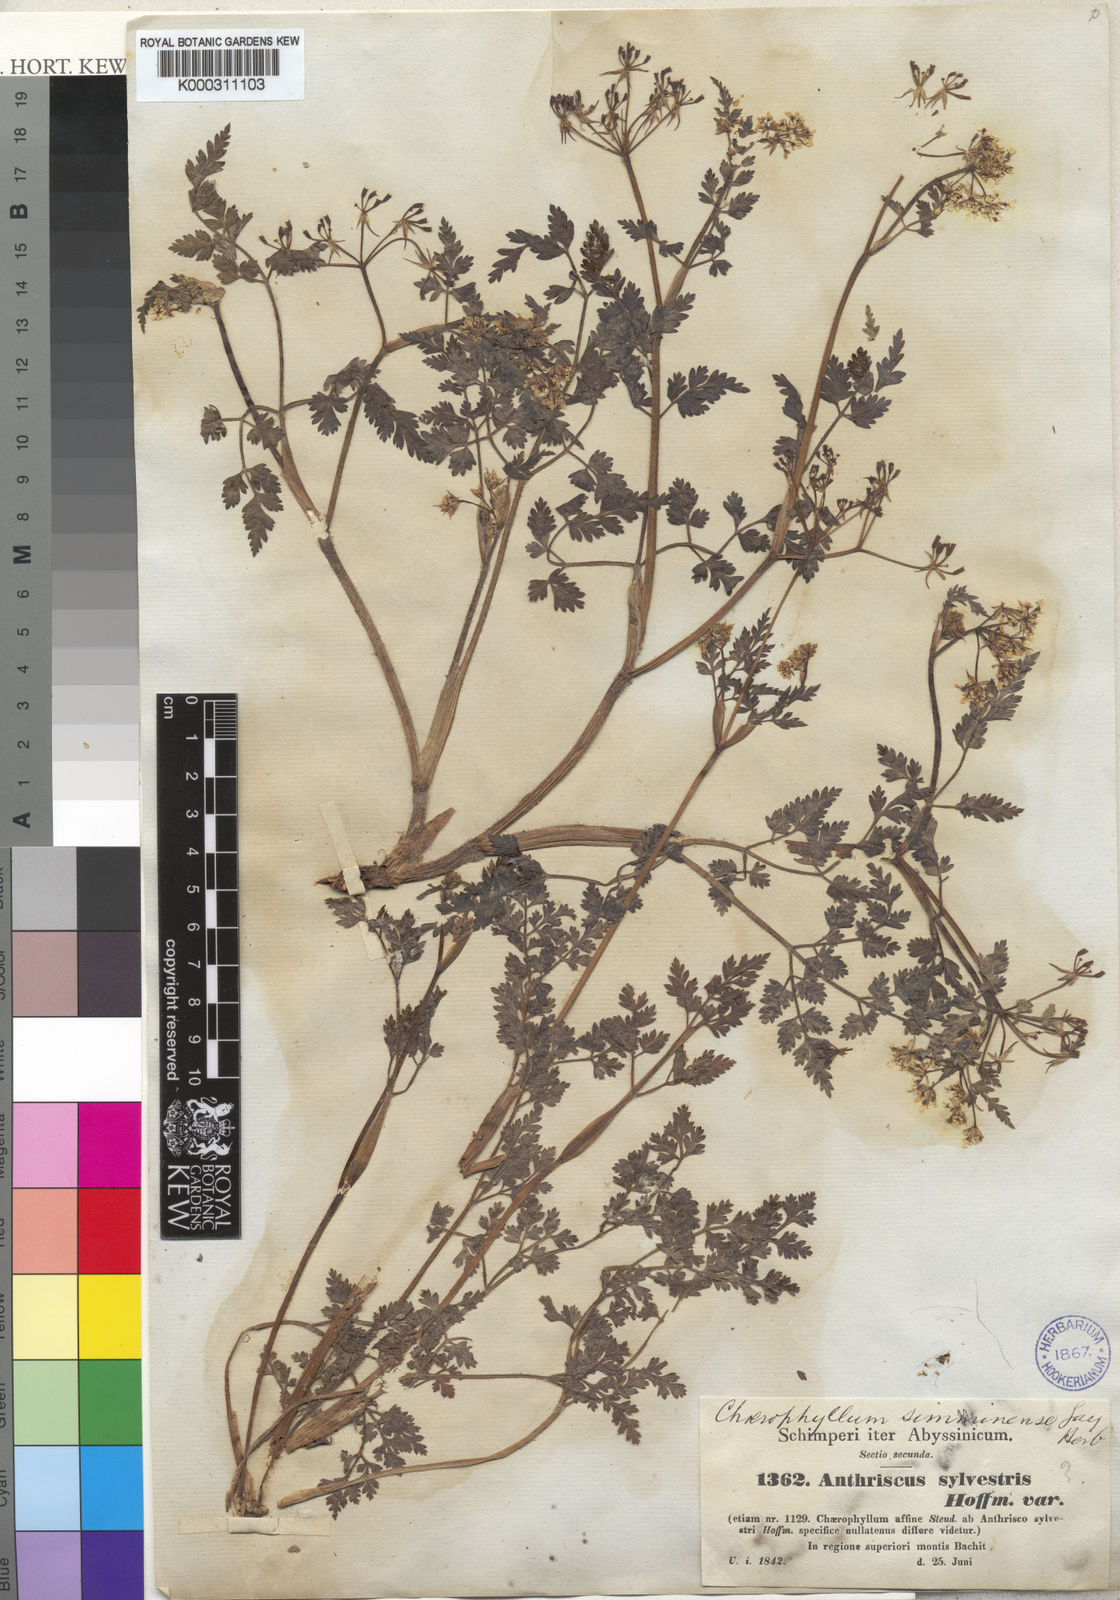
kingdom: Plantae
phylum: Tracheophyta
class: Magnoliopsida
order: Apiales
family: Apiaceae
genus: Anthriscus
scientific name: Anthriscus sylvestris
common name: Cow parsley
